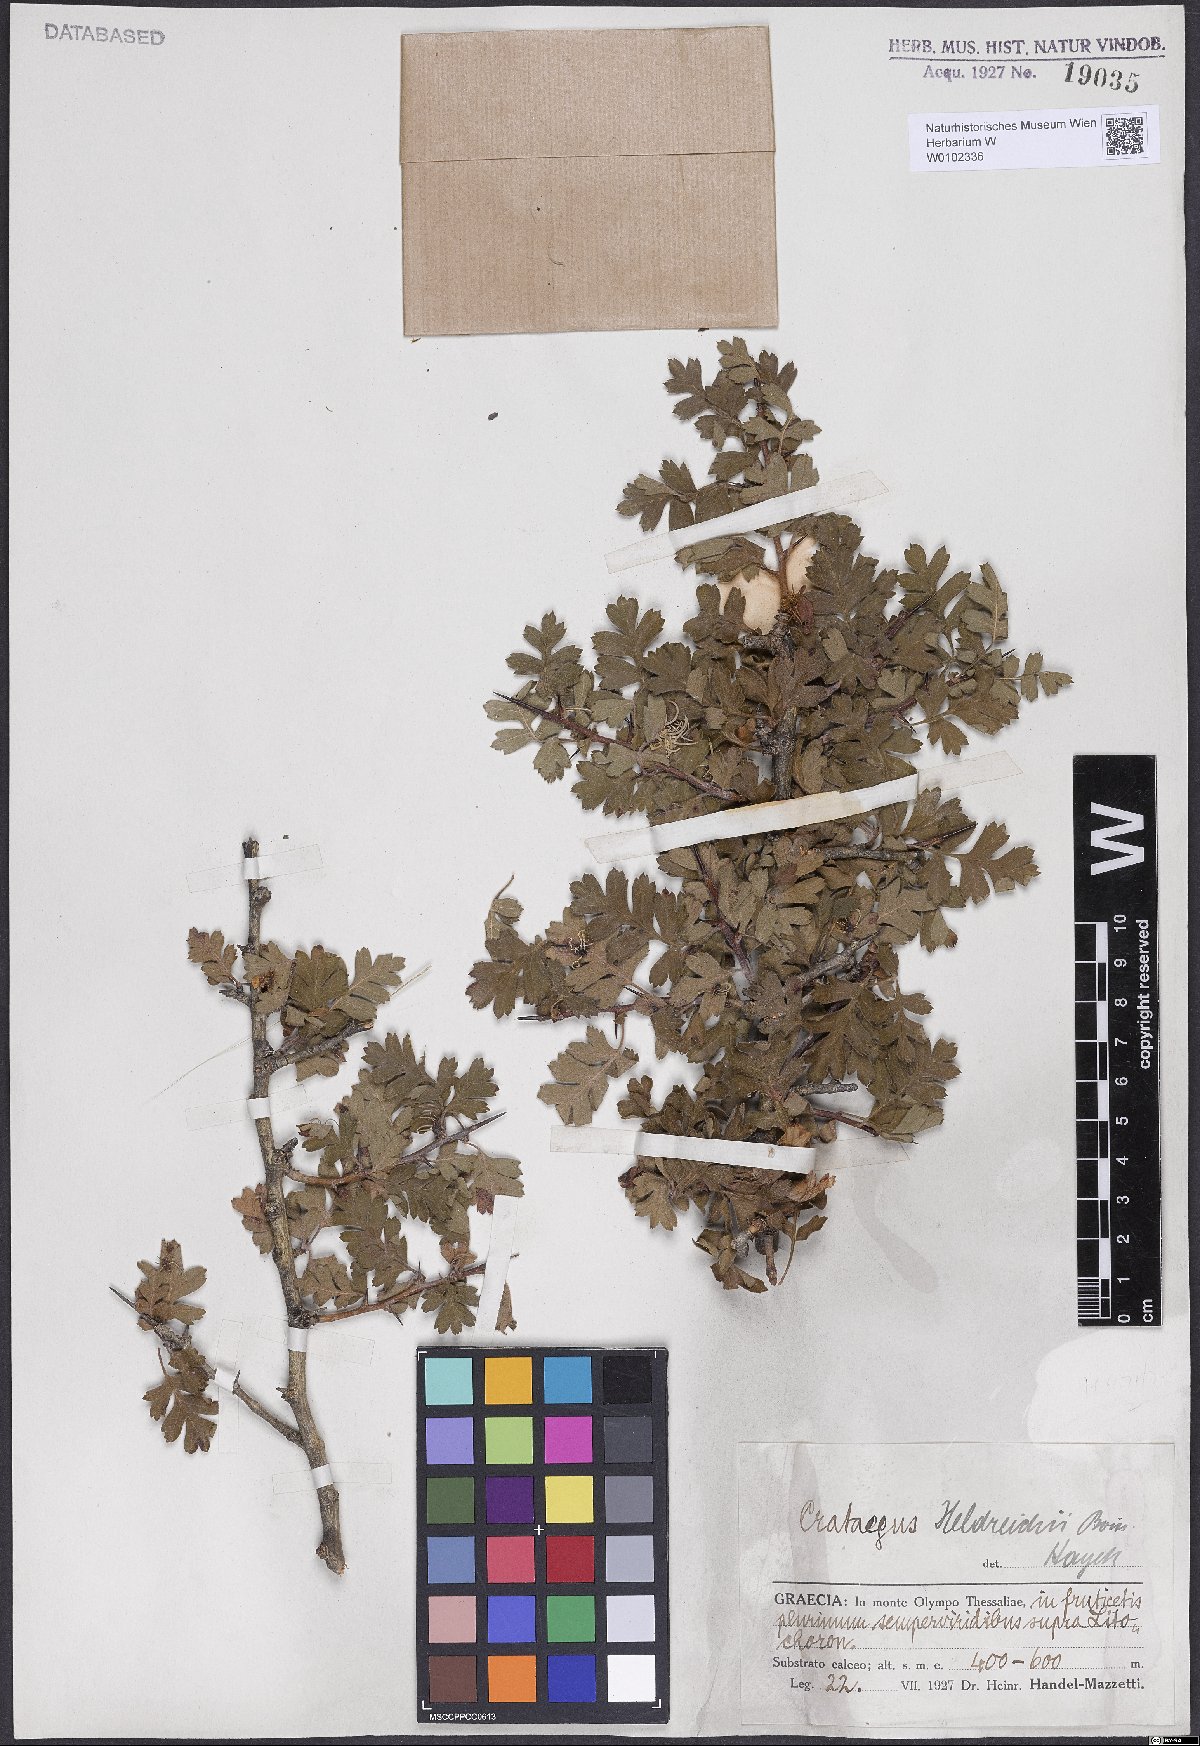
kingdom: Plantae
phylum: Tracheophyta
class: Magnoliopsida
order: Rosales
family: Rosaceae
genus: Crataegus
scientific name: Crataegus heldreichii
